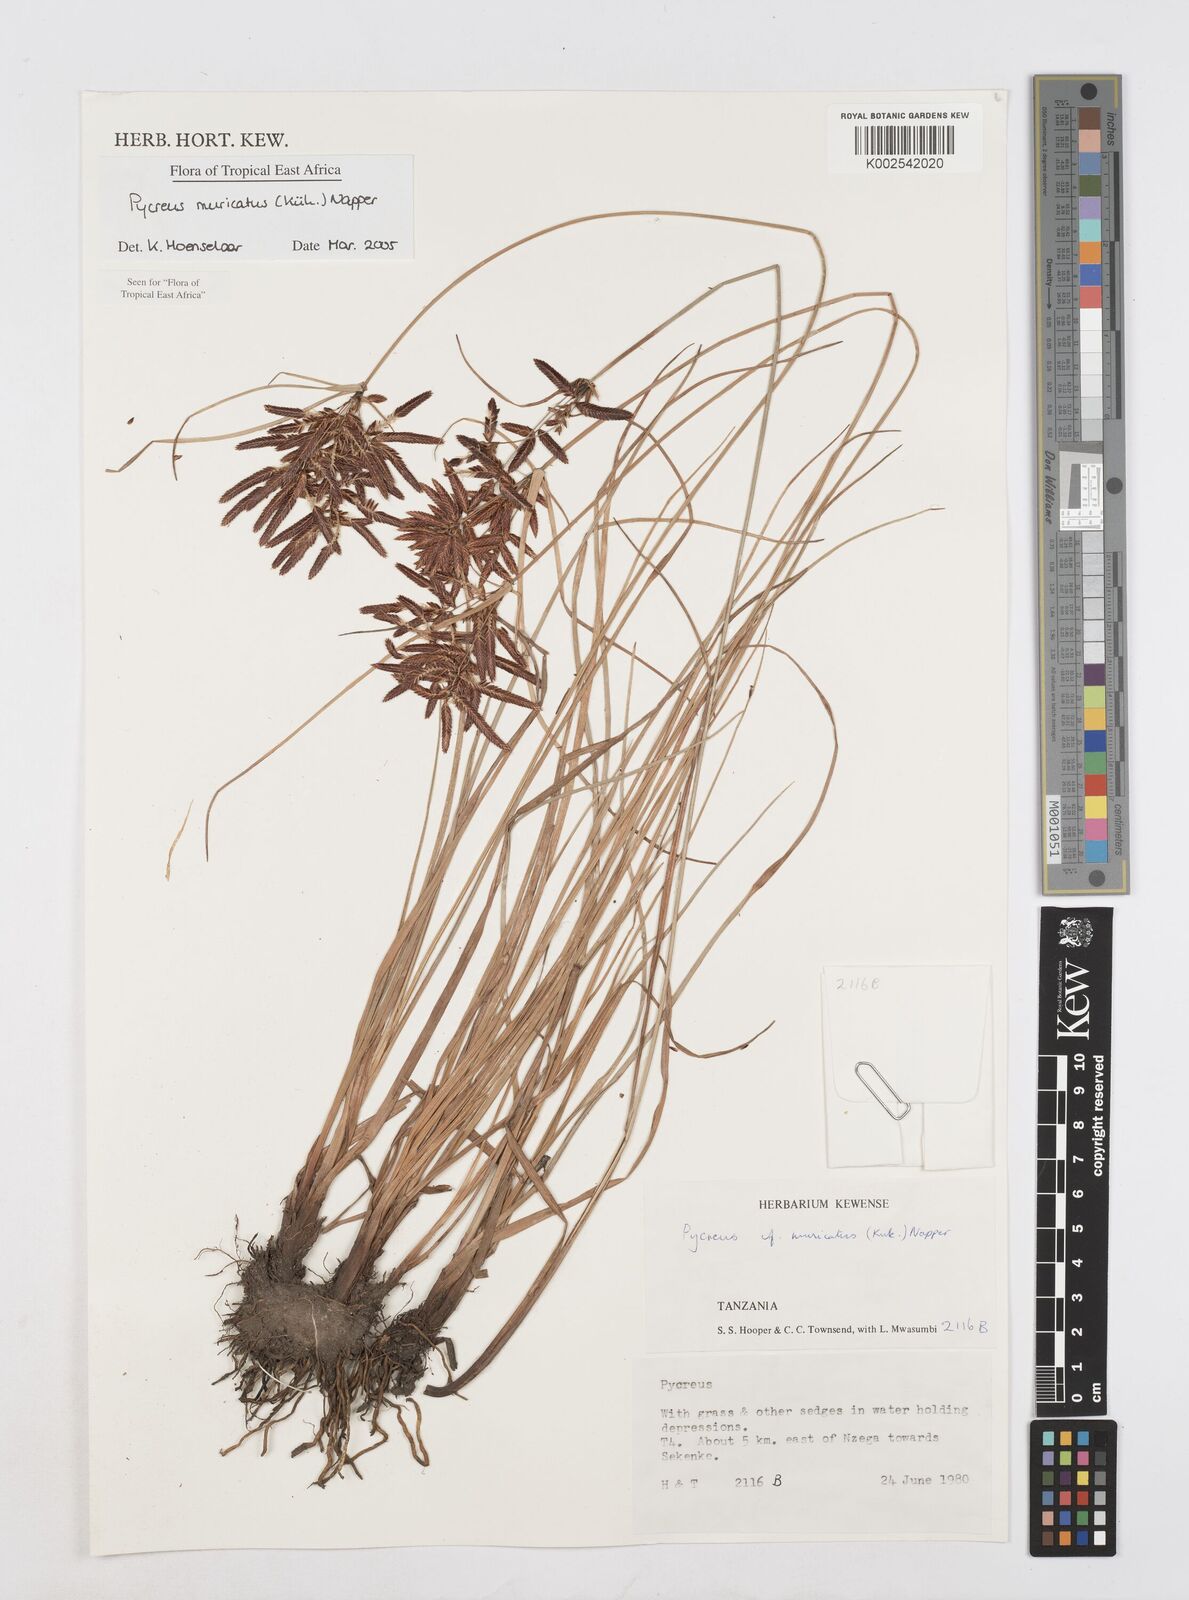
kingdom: Plantae
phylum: Tracheophyta
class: Liliopsida
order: Poales
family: Cyperaceae
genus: Cyperus
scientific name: Cyperus nigricans
